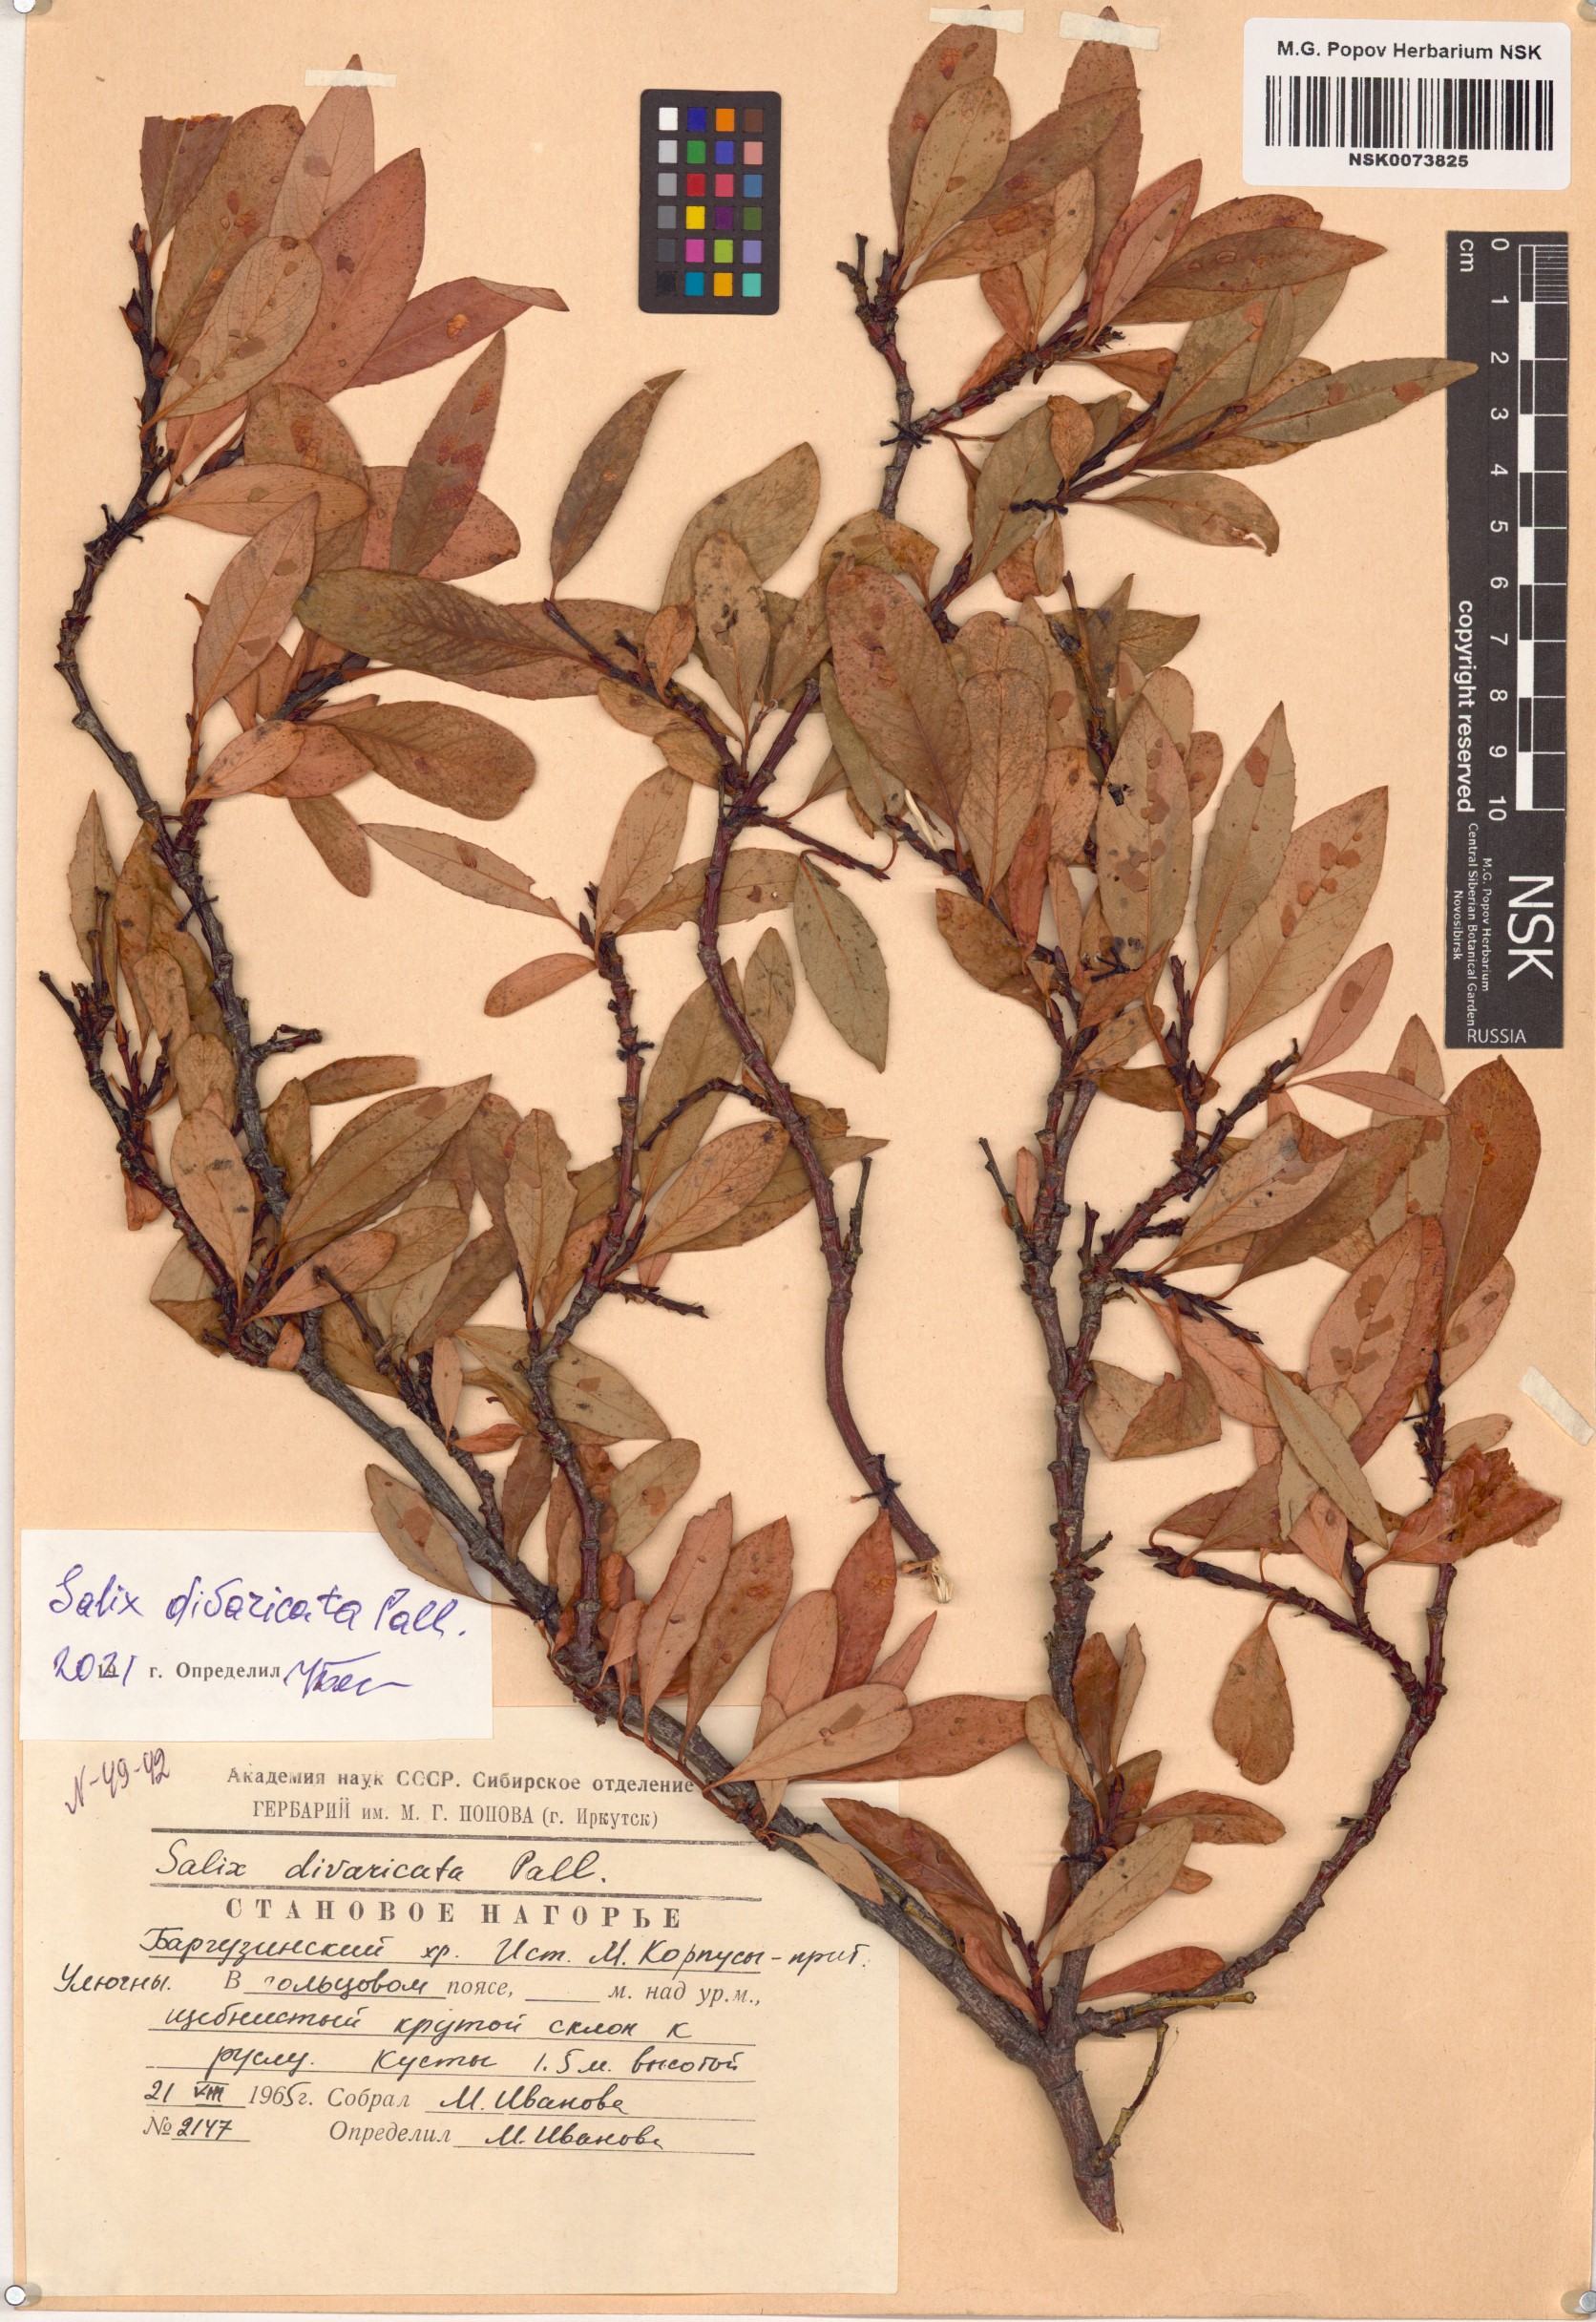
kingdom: Plantae
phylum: Tracheophyta
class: Magnoliopsida
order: Malpighiales
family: Salicaceae
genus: Salix
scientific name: Salix divaricata
